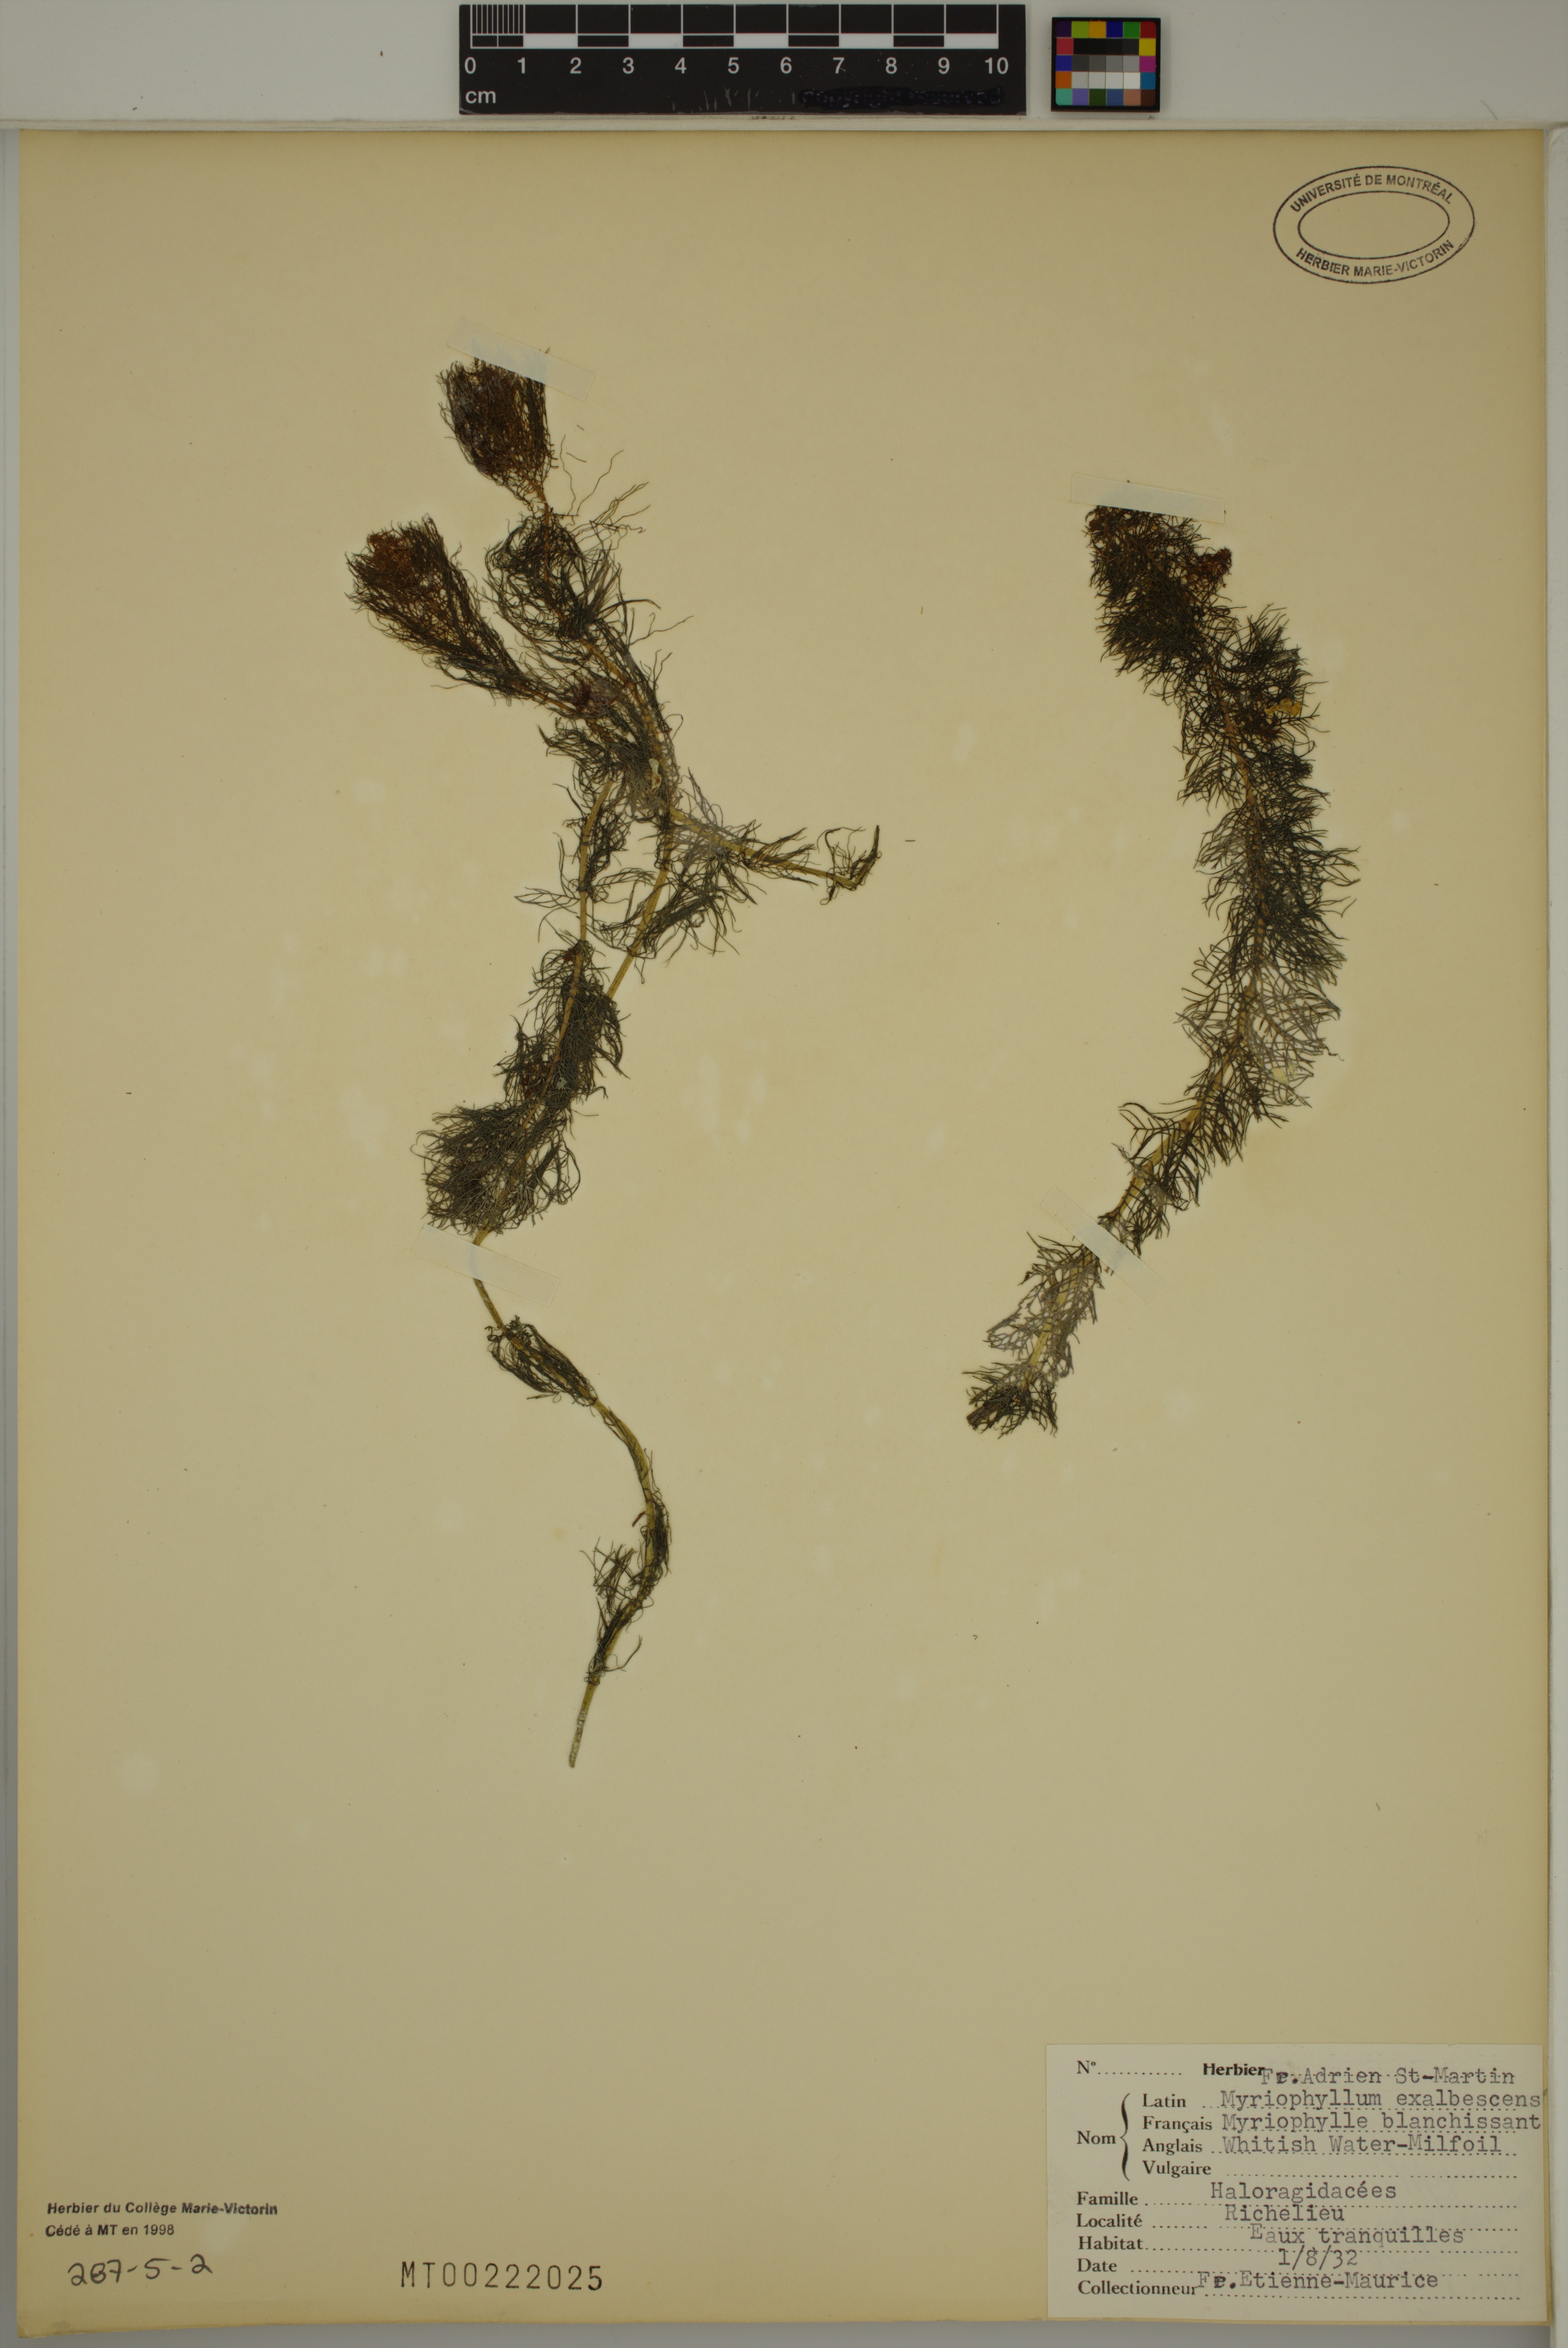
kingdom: Plantae
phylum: Tracheophyta
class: Magnoliopsida
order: Saxifragales
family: Haloragaceae
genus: Myriophyllum
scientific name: Myriophyllum sibiricum
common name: Siberian water-milfoil
